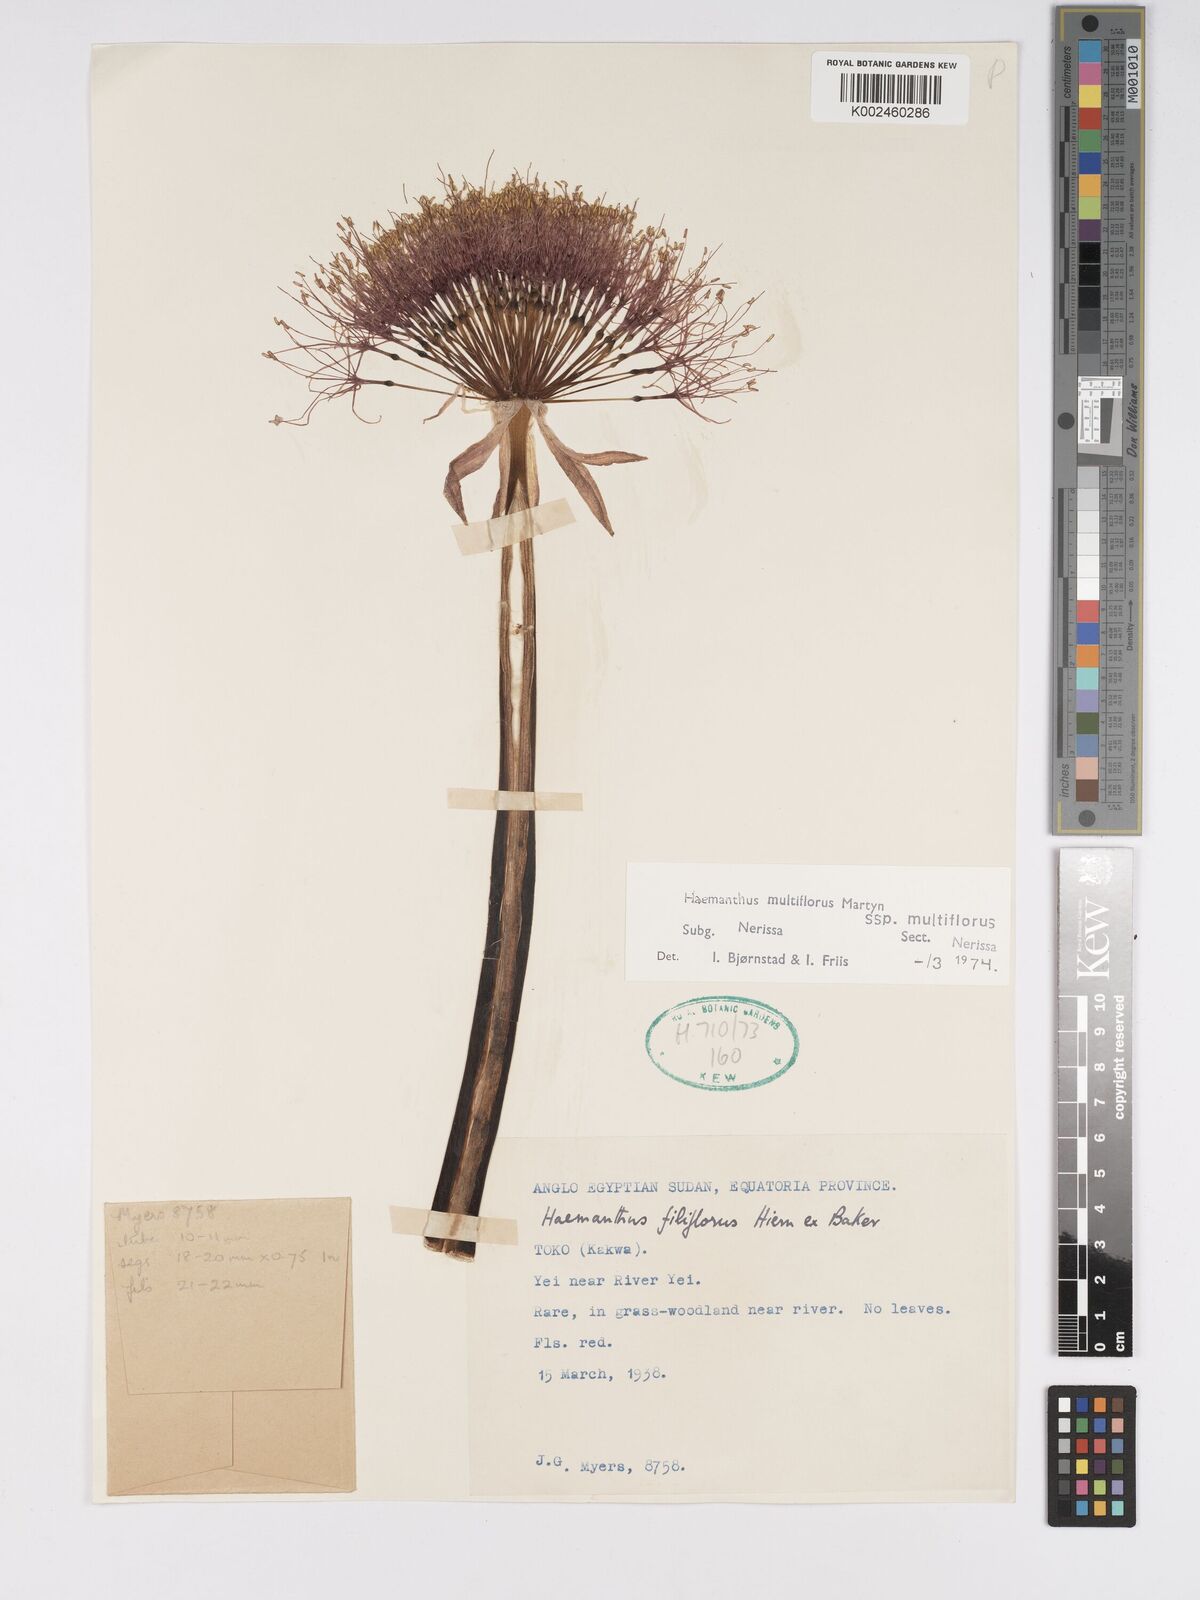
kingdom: Plantae
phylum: Tracheophyta
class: Liliopsida
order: Asparagales
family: Amaryllidaceae
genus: Scadoxus
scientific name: Scadoxus multiflorus
